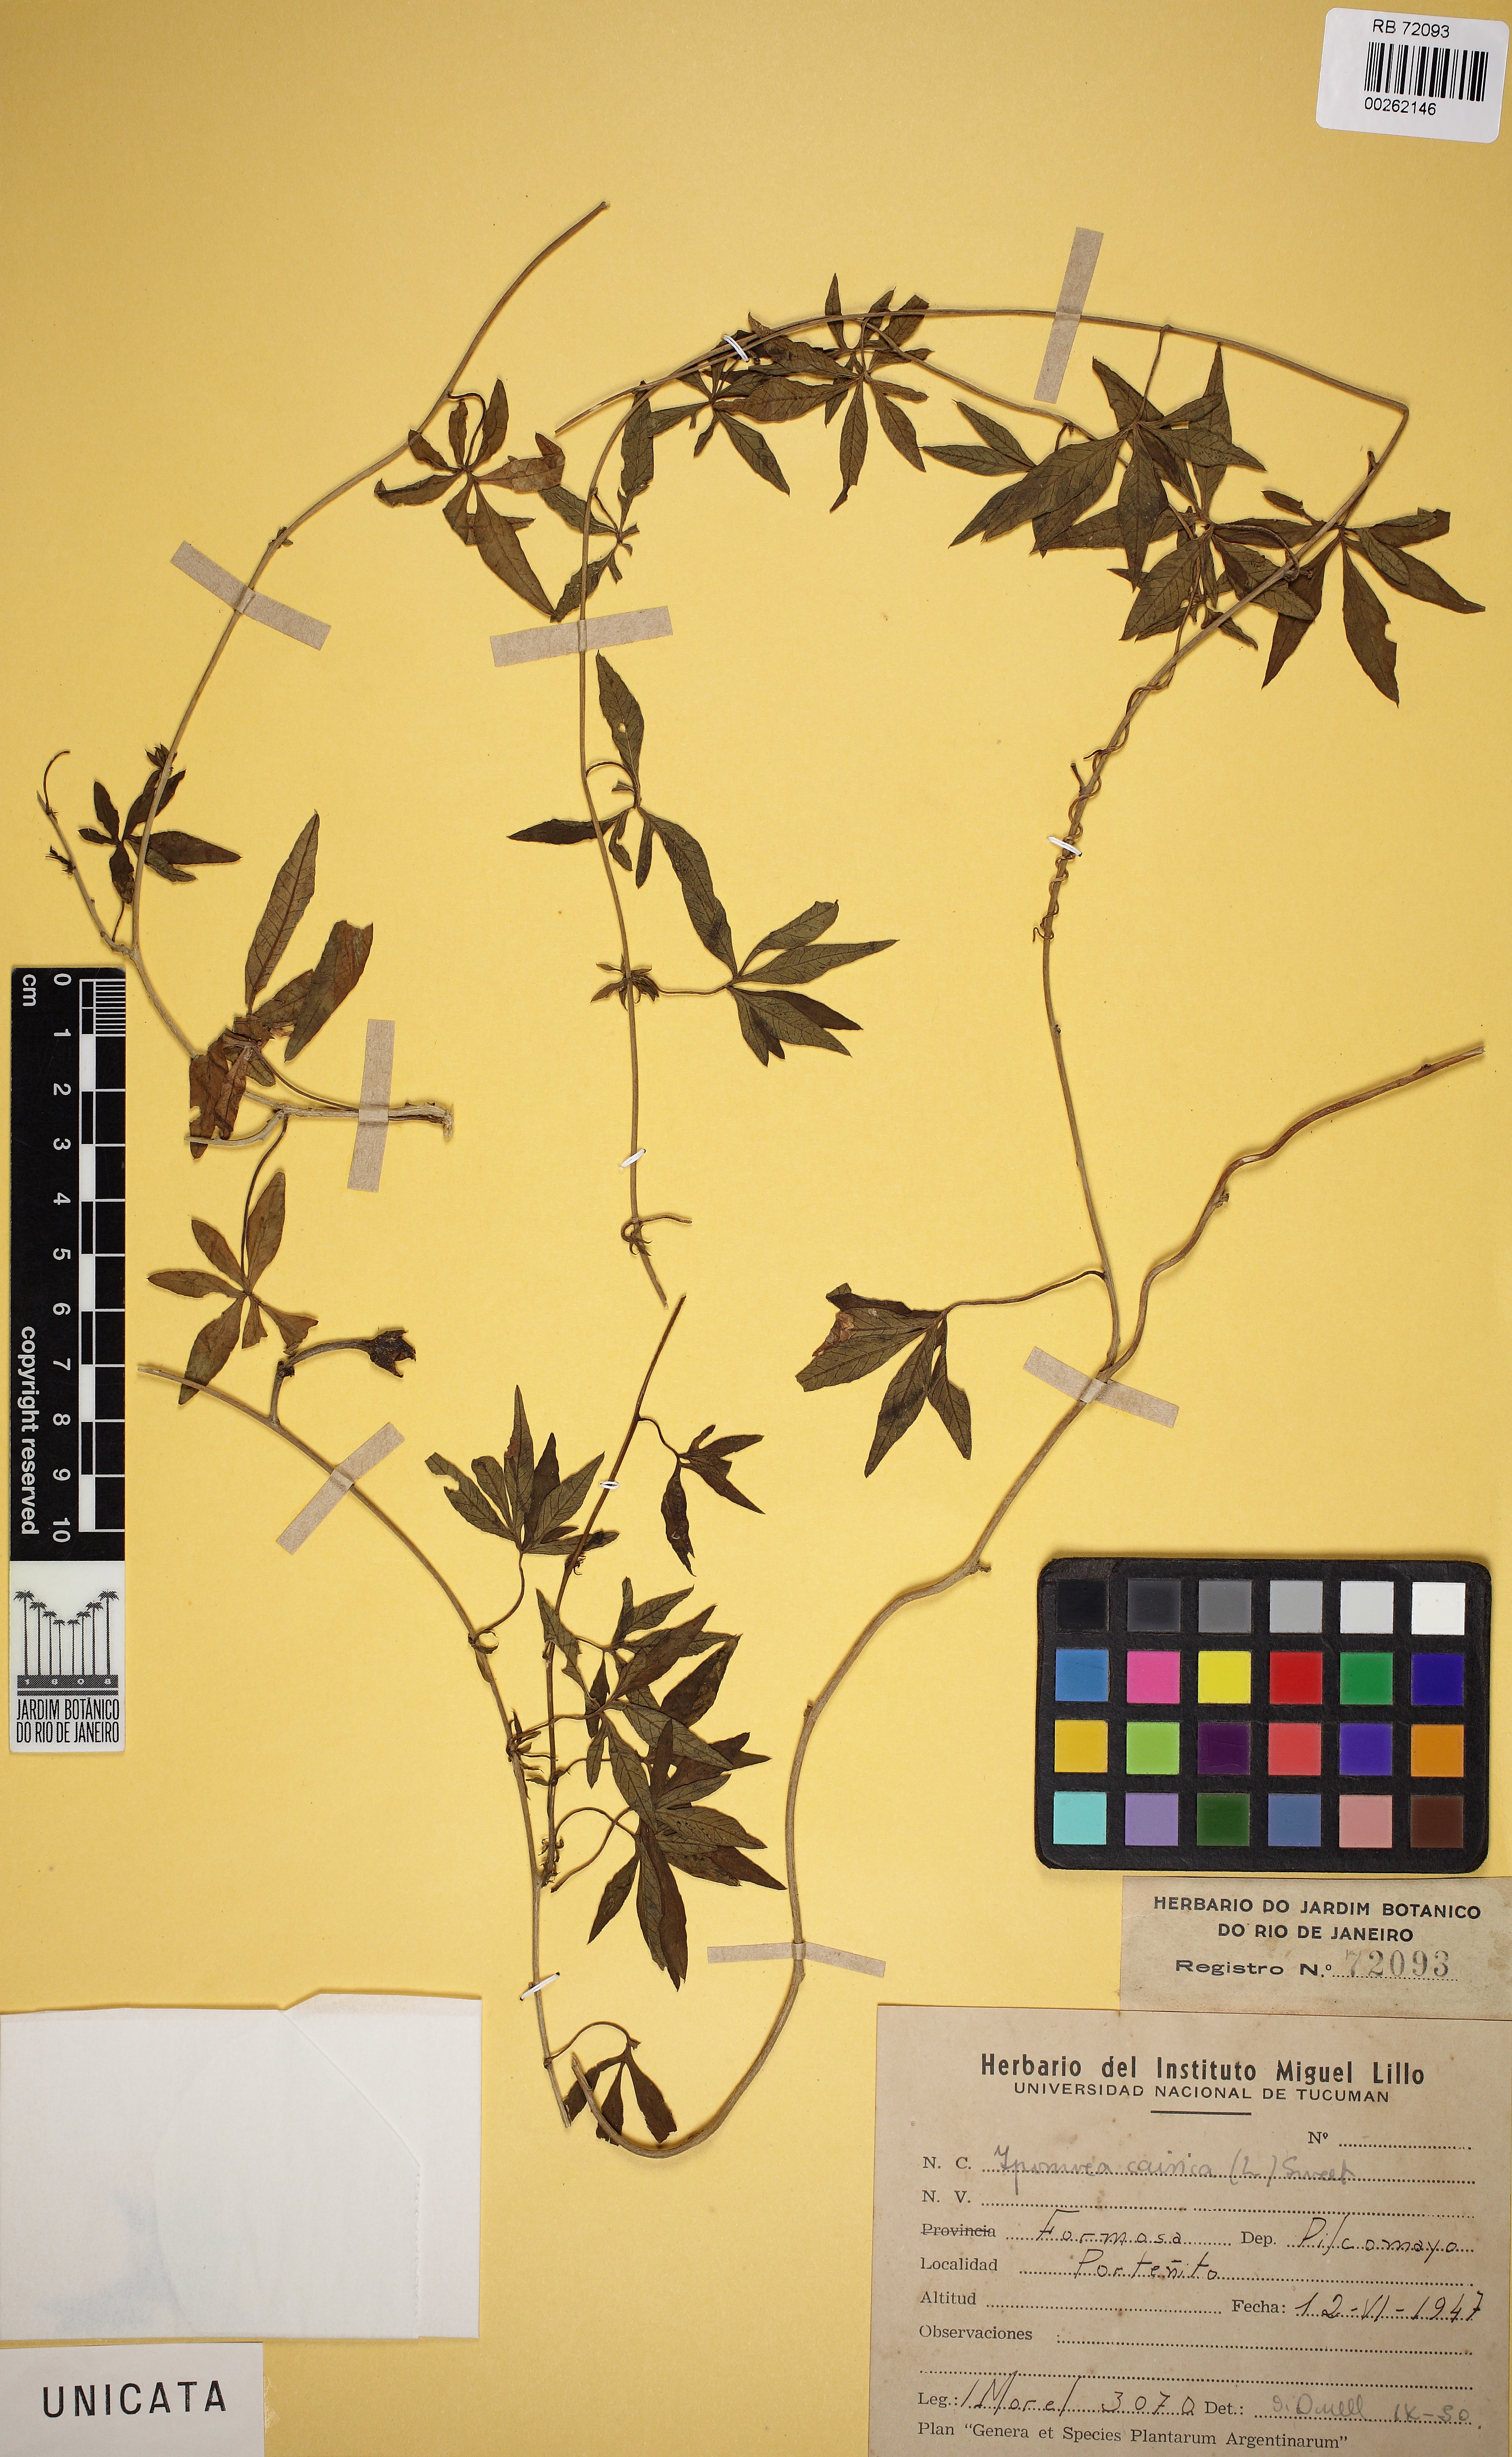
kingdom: Plantae
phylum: Tracheophyta
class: Magnoliopsida
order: Solanales
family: Convolvulaceae
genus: Ipomoea
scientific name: Ipomoea cairica
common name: Mile a minute vine
